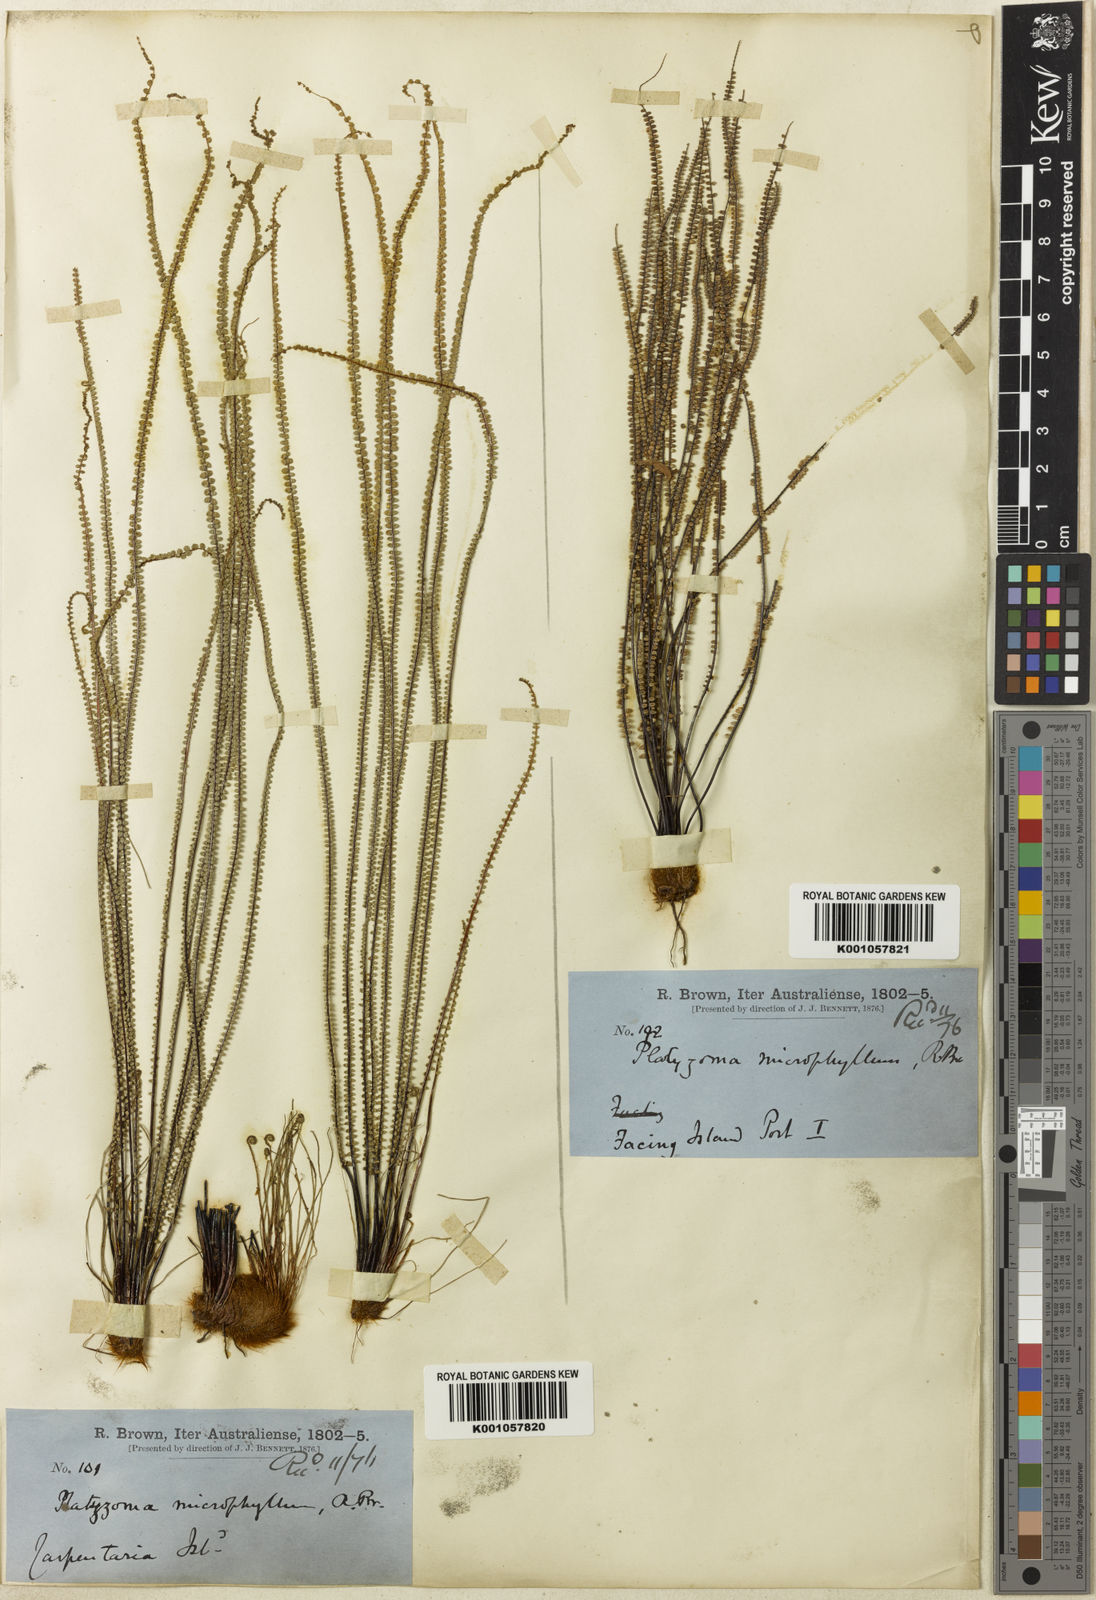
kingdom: Plantae
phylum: Tracheophyta
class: Polypodiopsida
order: Polypodiales
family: Pteridaceae
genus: Pteris
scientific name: Pteris platyzomopsis
